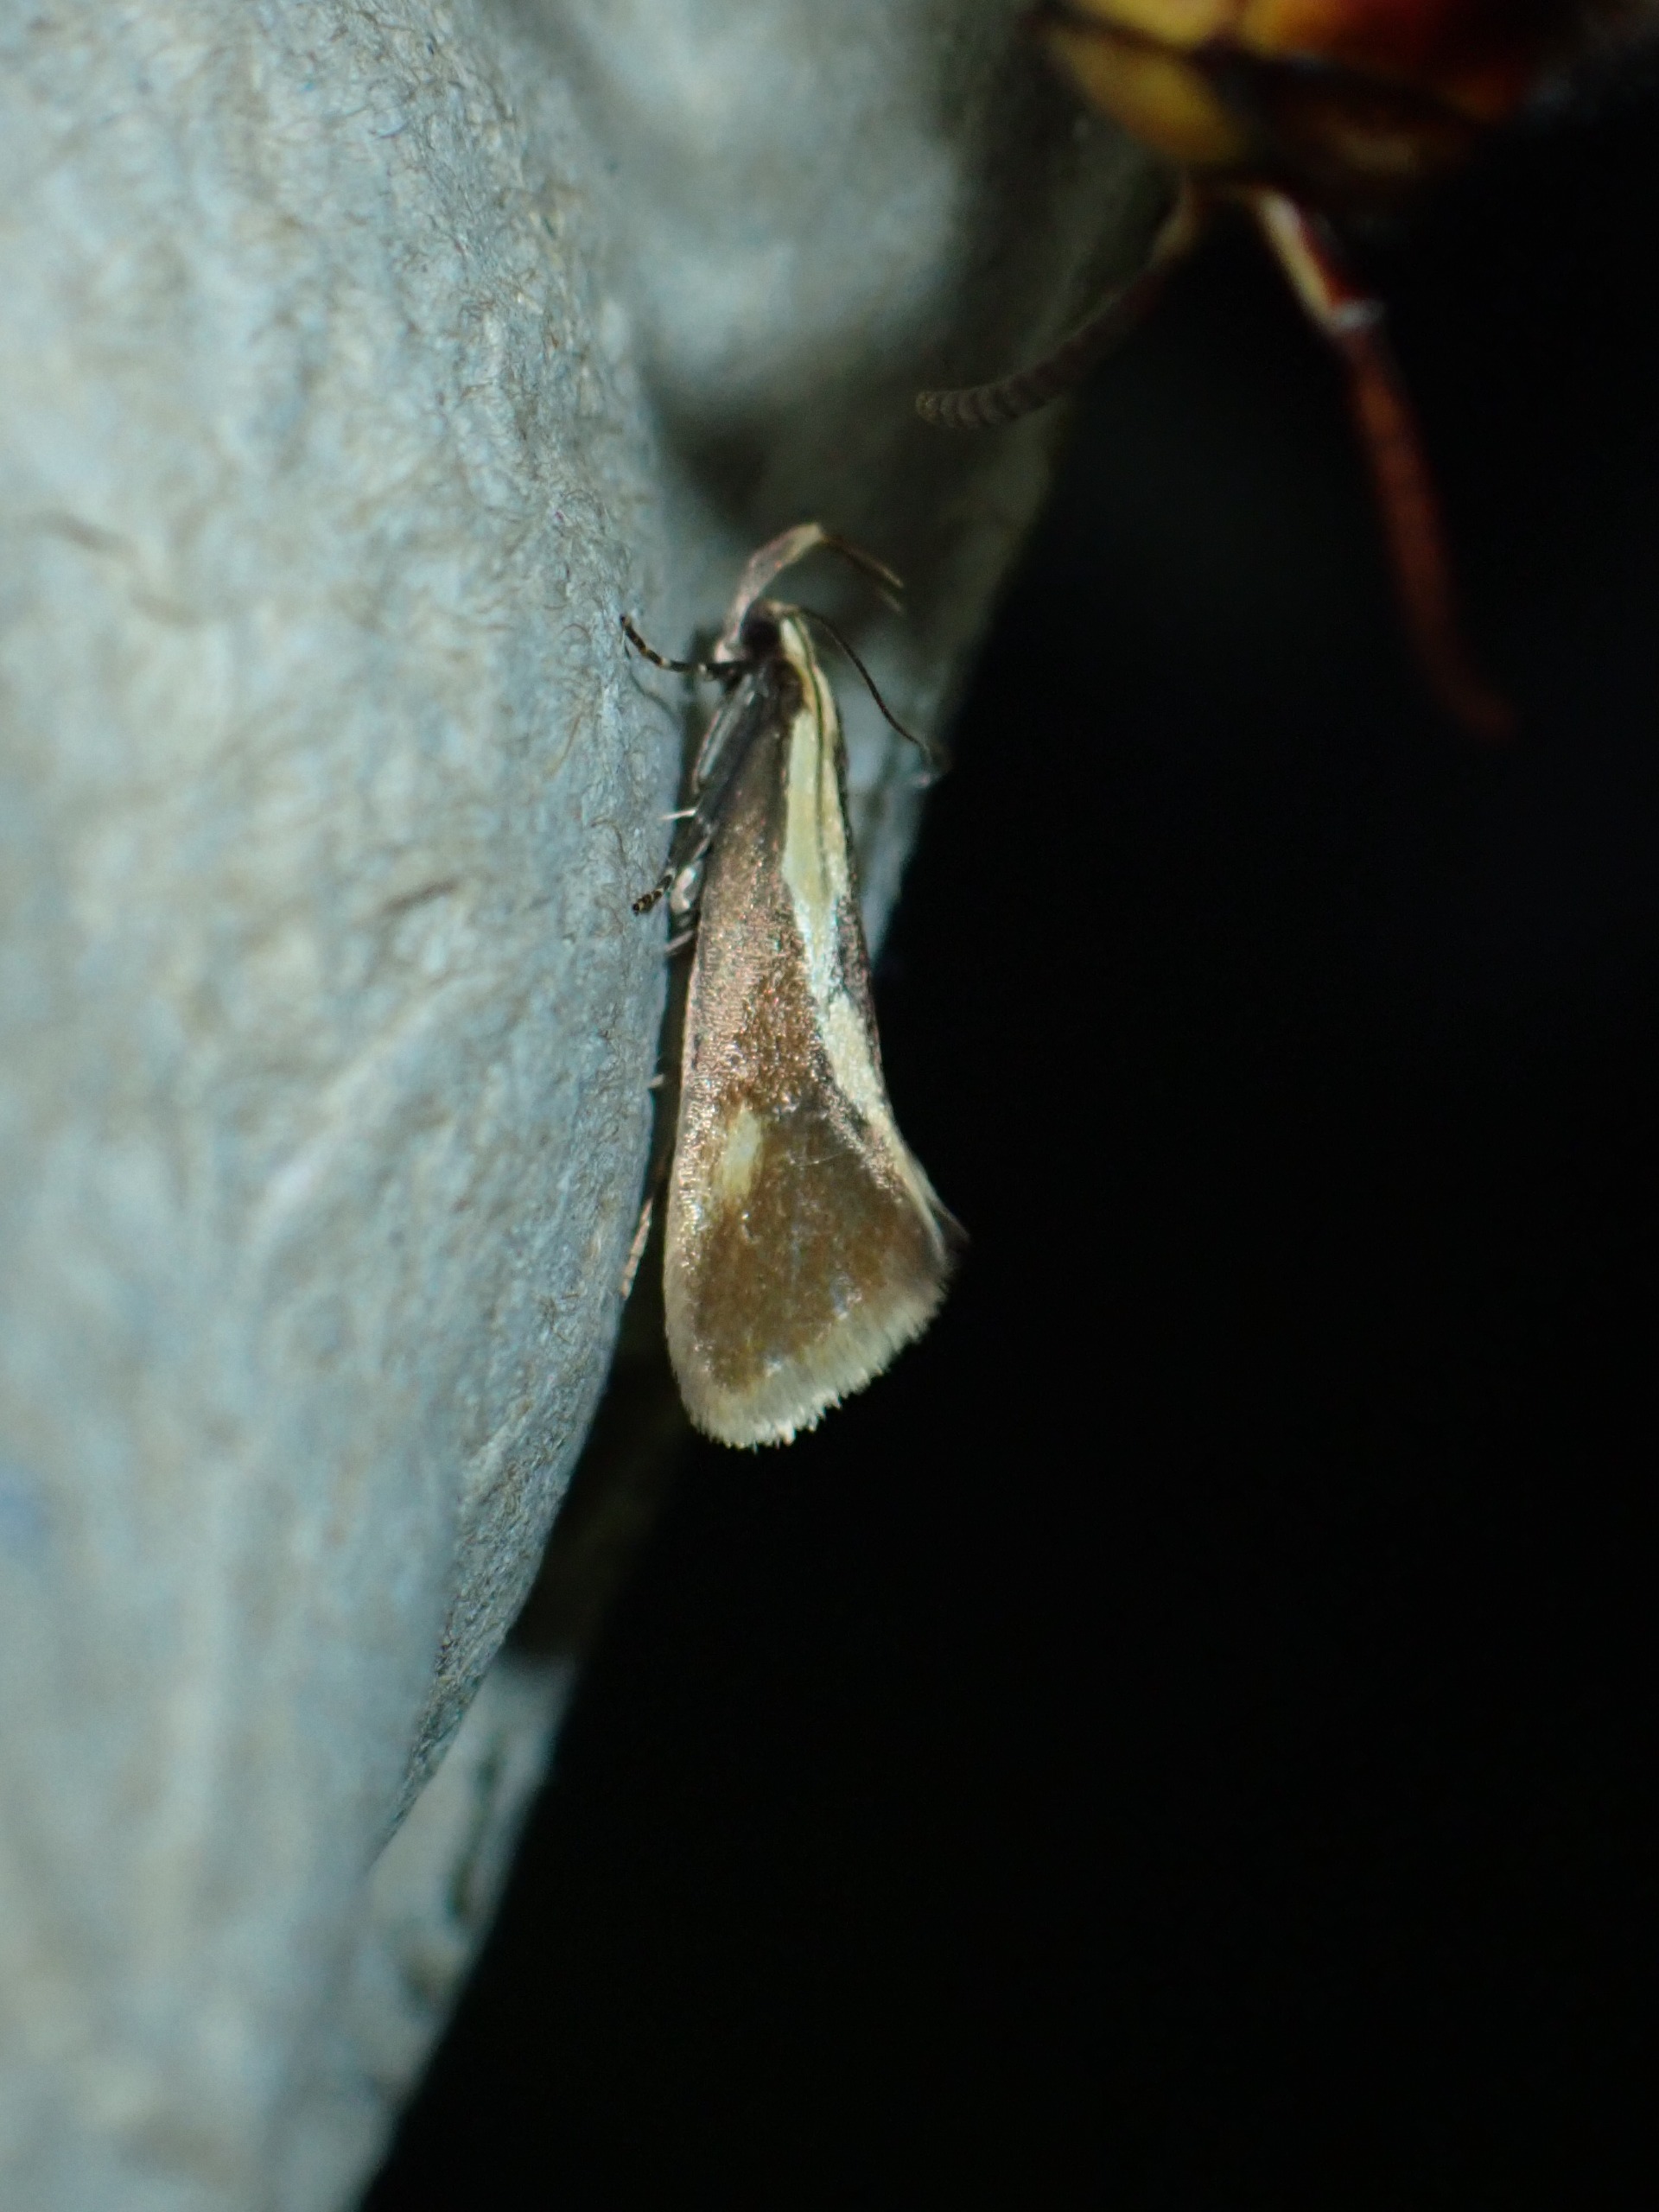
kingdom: Animalia
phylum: Arthropoda
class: Insecta
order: Lepidoptera
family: Oecophoridae
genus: Harpella
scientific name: Harpella forficella
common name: Kæmpeprydvinge
